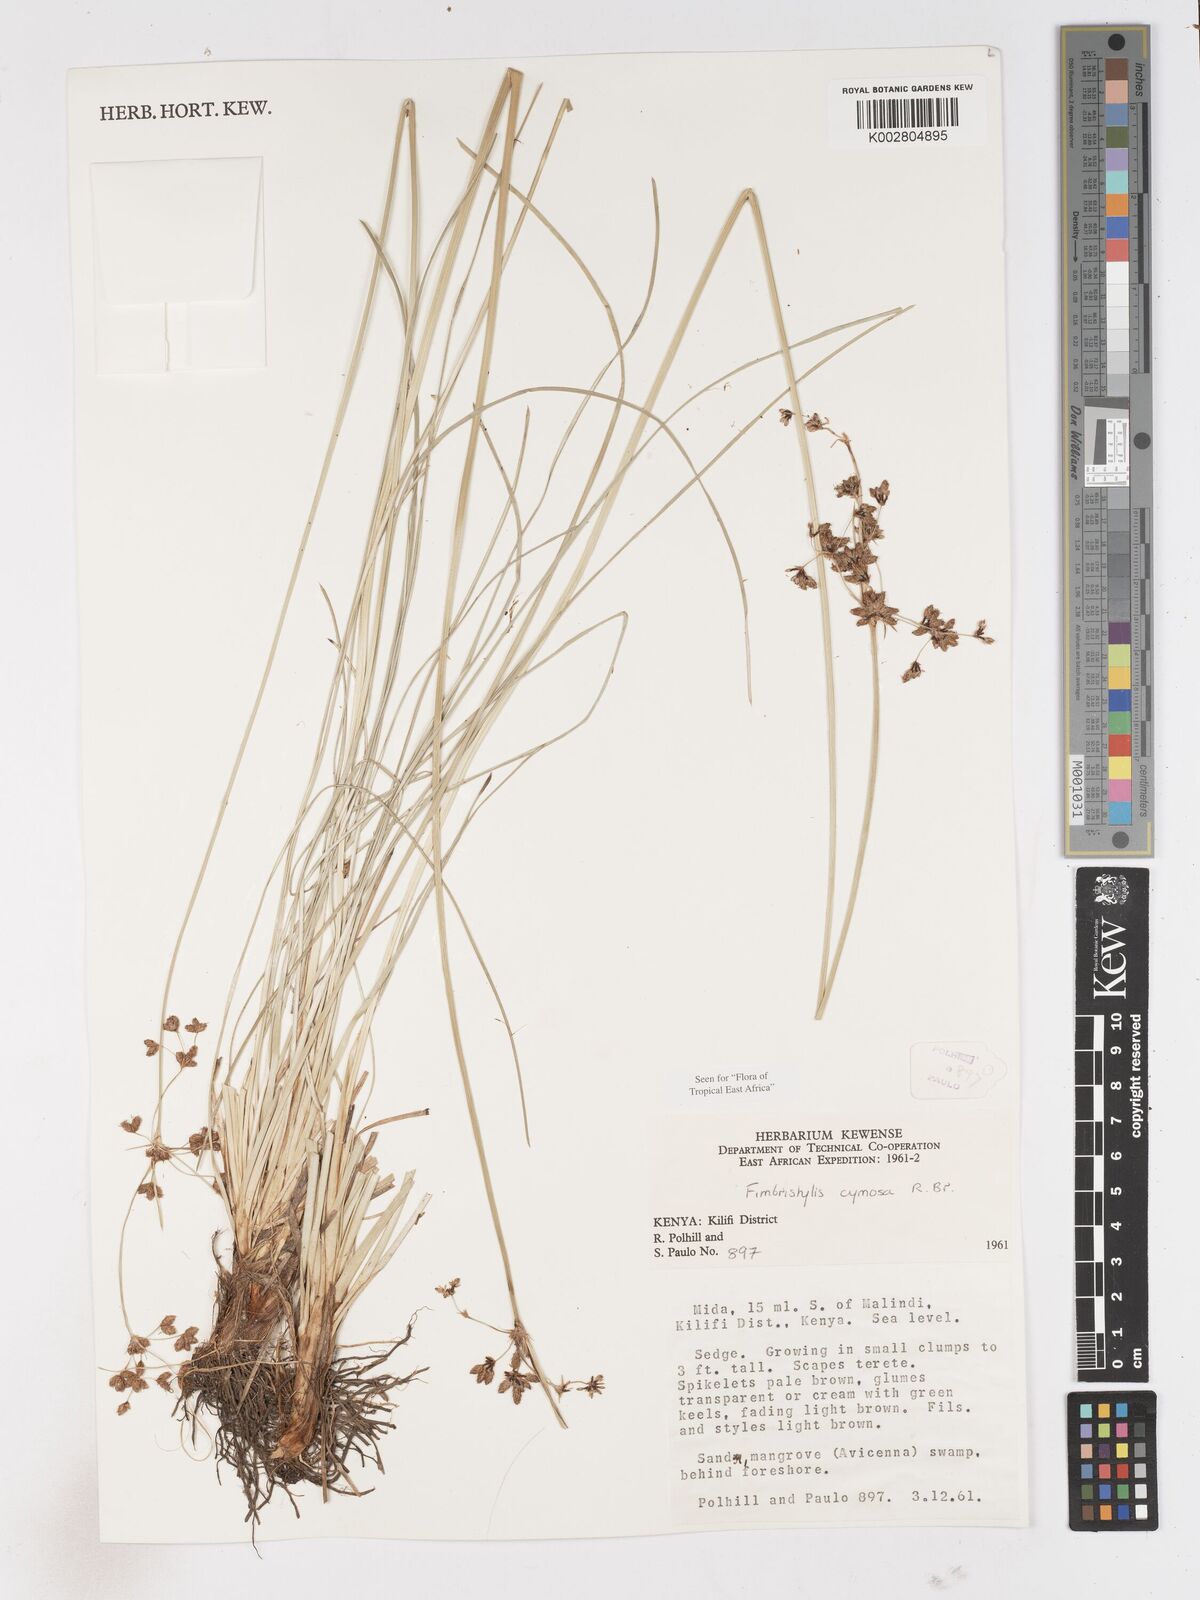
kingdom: Plantae
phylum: Tracheophyta
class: Liliopsida
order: Poales
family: Cyperaceae
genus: Fimbristylis
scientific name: Fimbristylis cymosa
